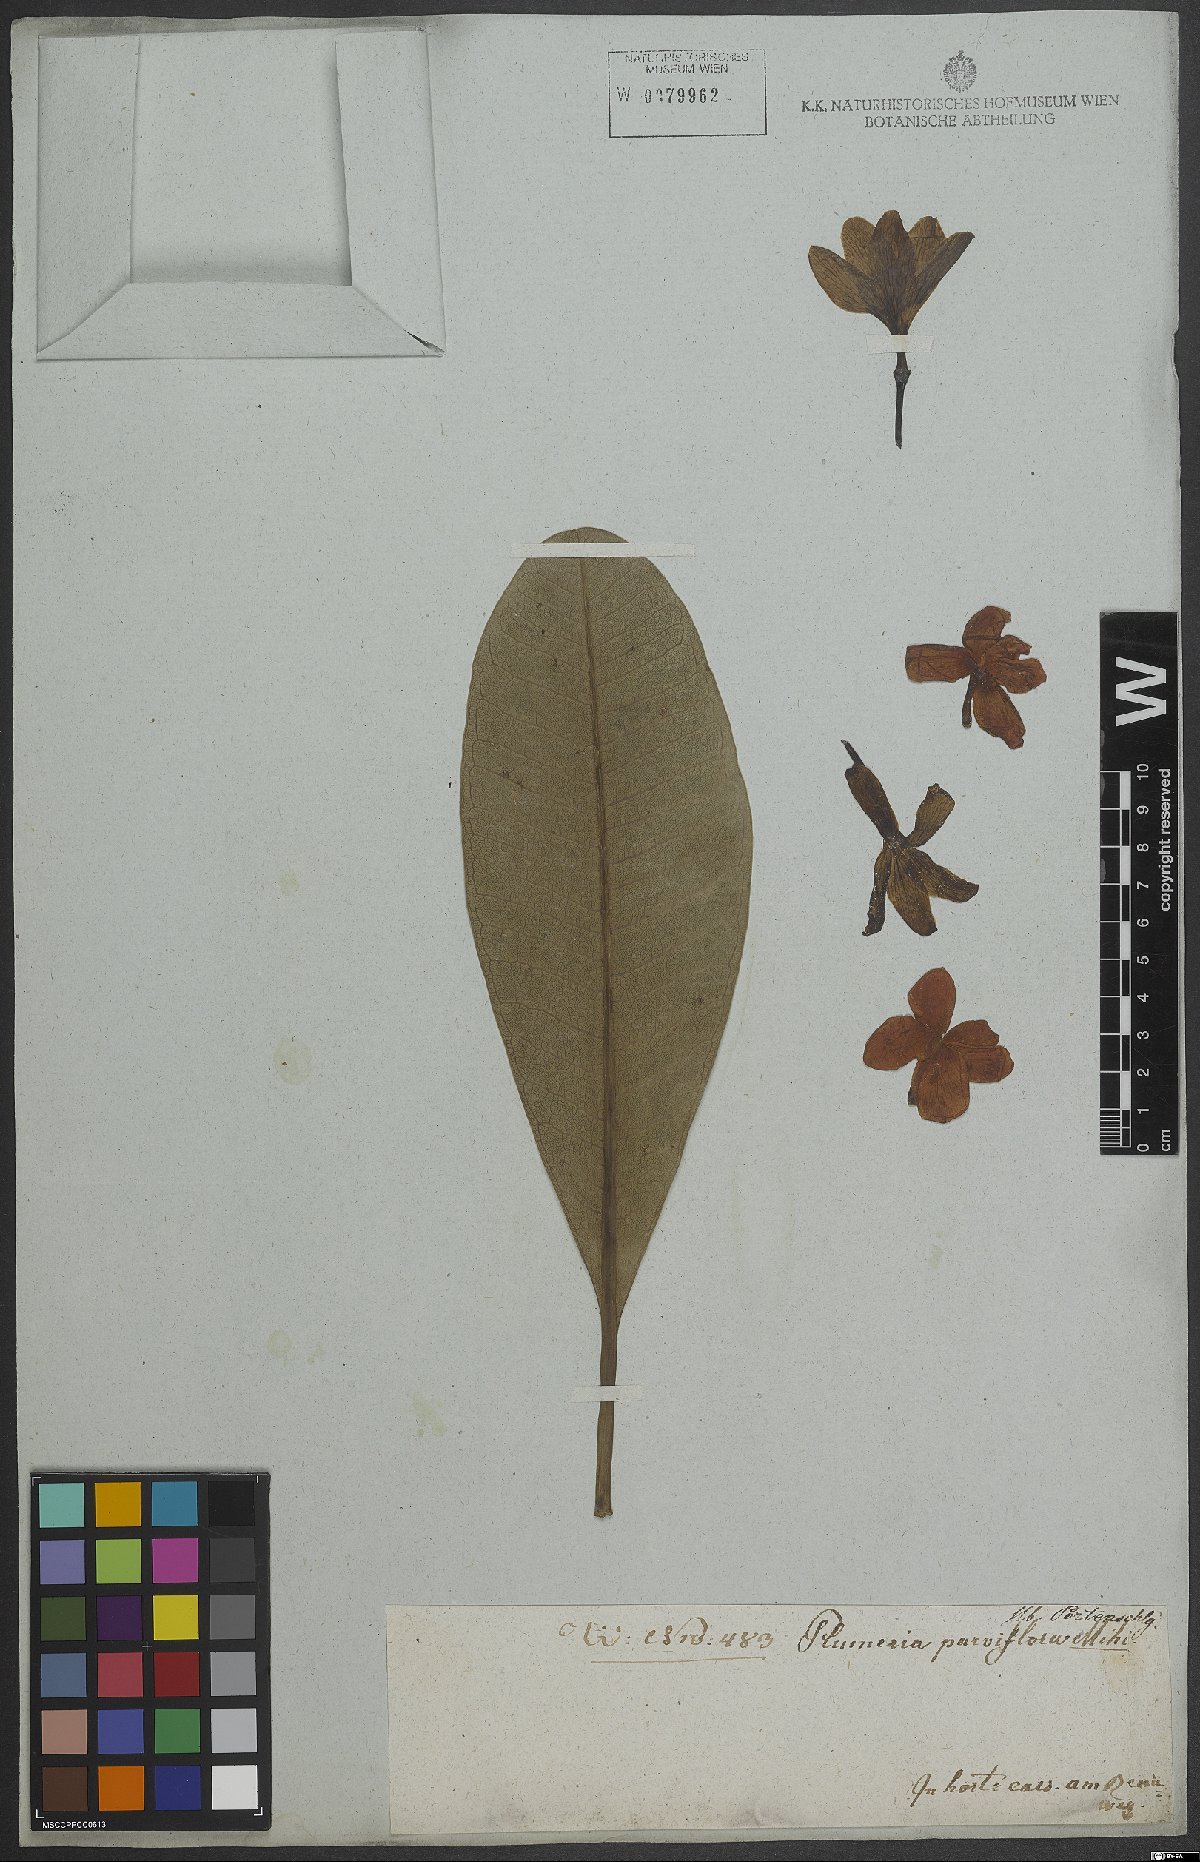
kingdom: Plantae
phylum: Tracheophyta
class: Magnoliopsida
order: Gentianales
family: Apocynaceae
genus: Plumeria
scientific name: Plumeria
